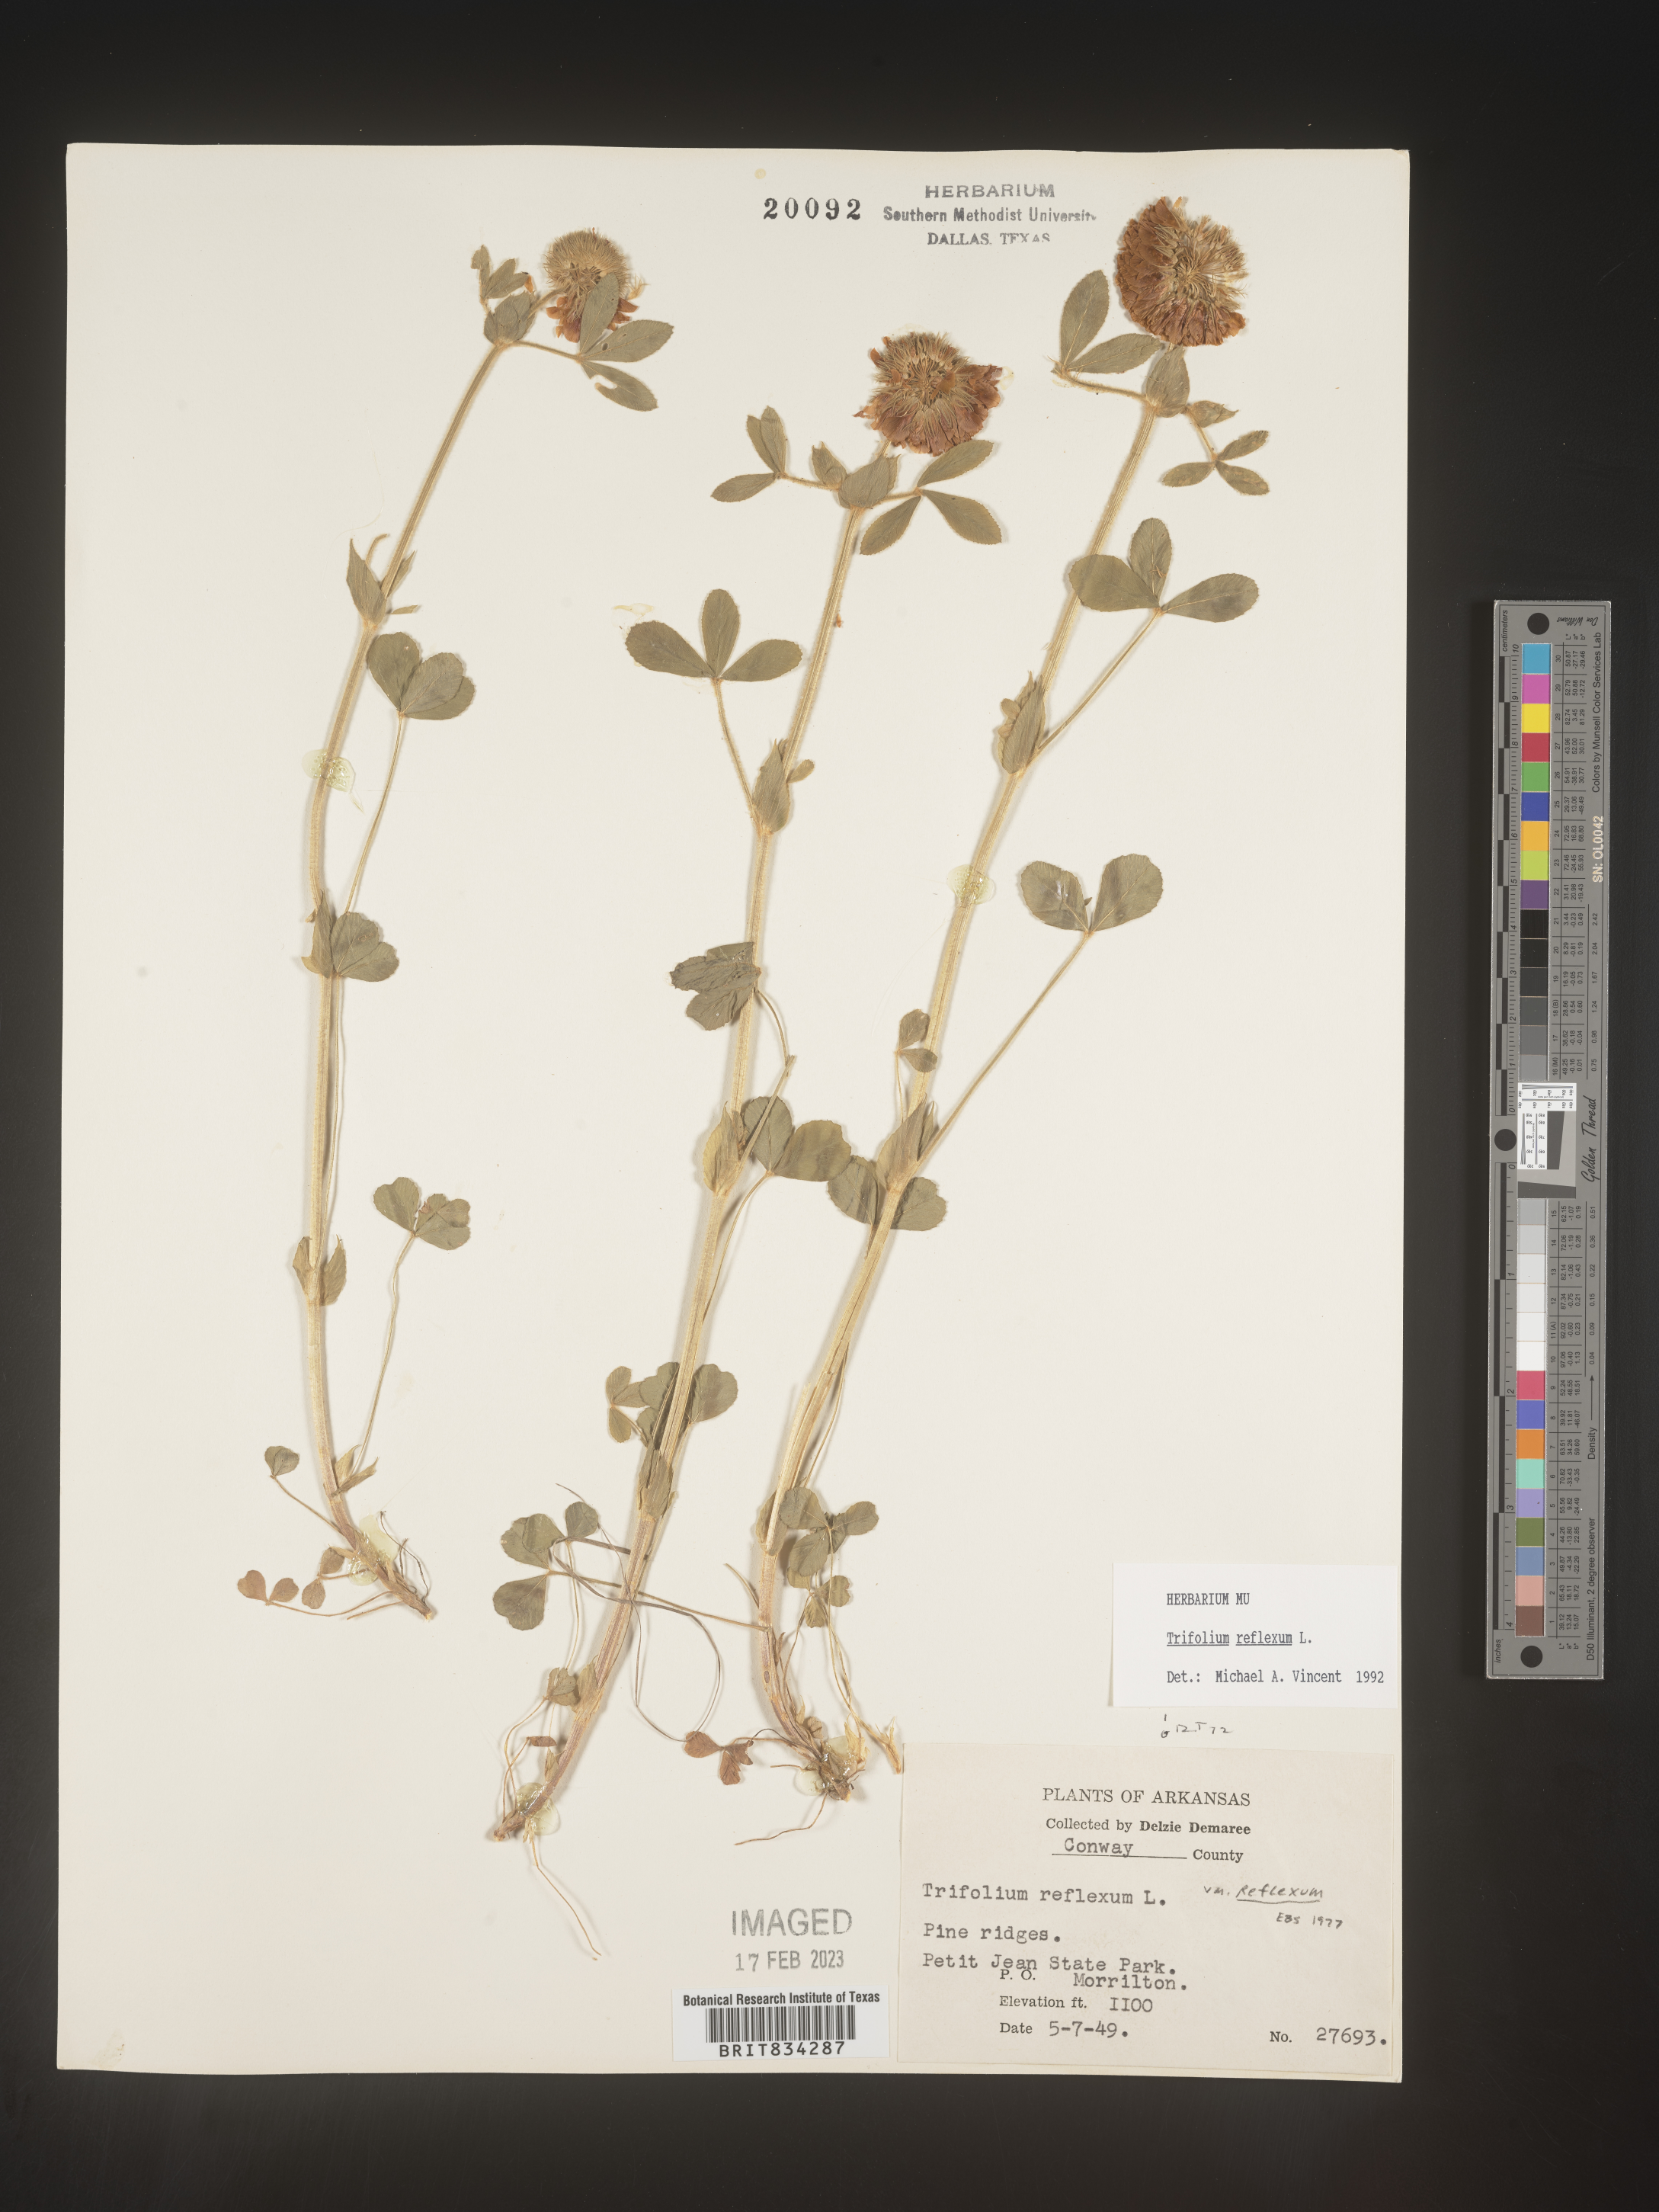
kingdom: Plantae
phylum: Tracheophyta
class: Magnoliopsida
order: Fabales
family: Fabaceae
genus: Trifolium
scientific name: Trifolium reflexum
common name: Buffalo clover
